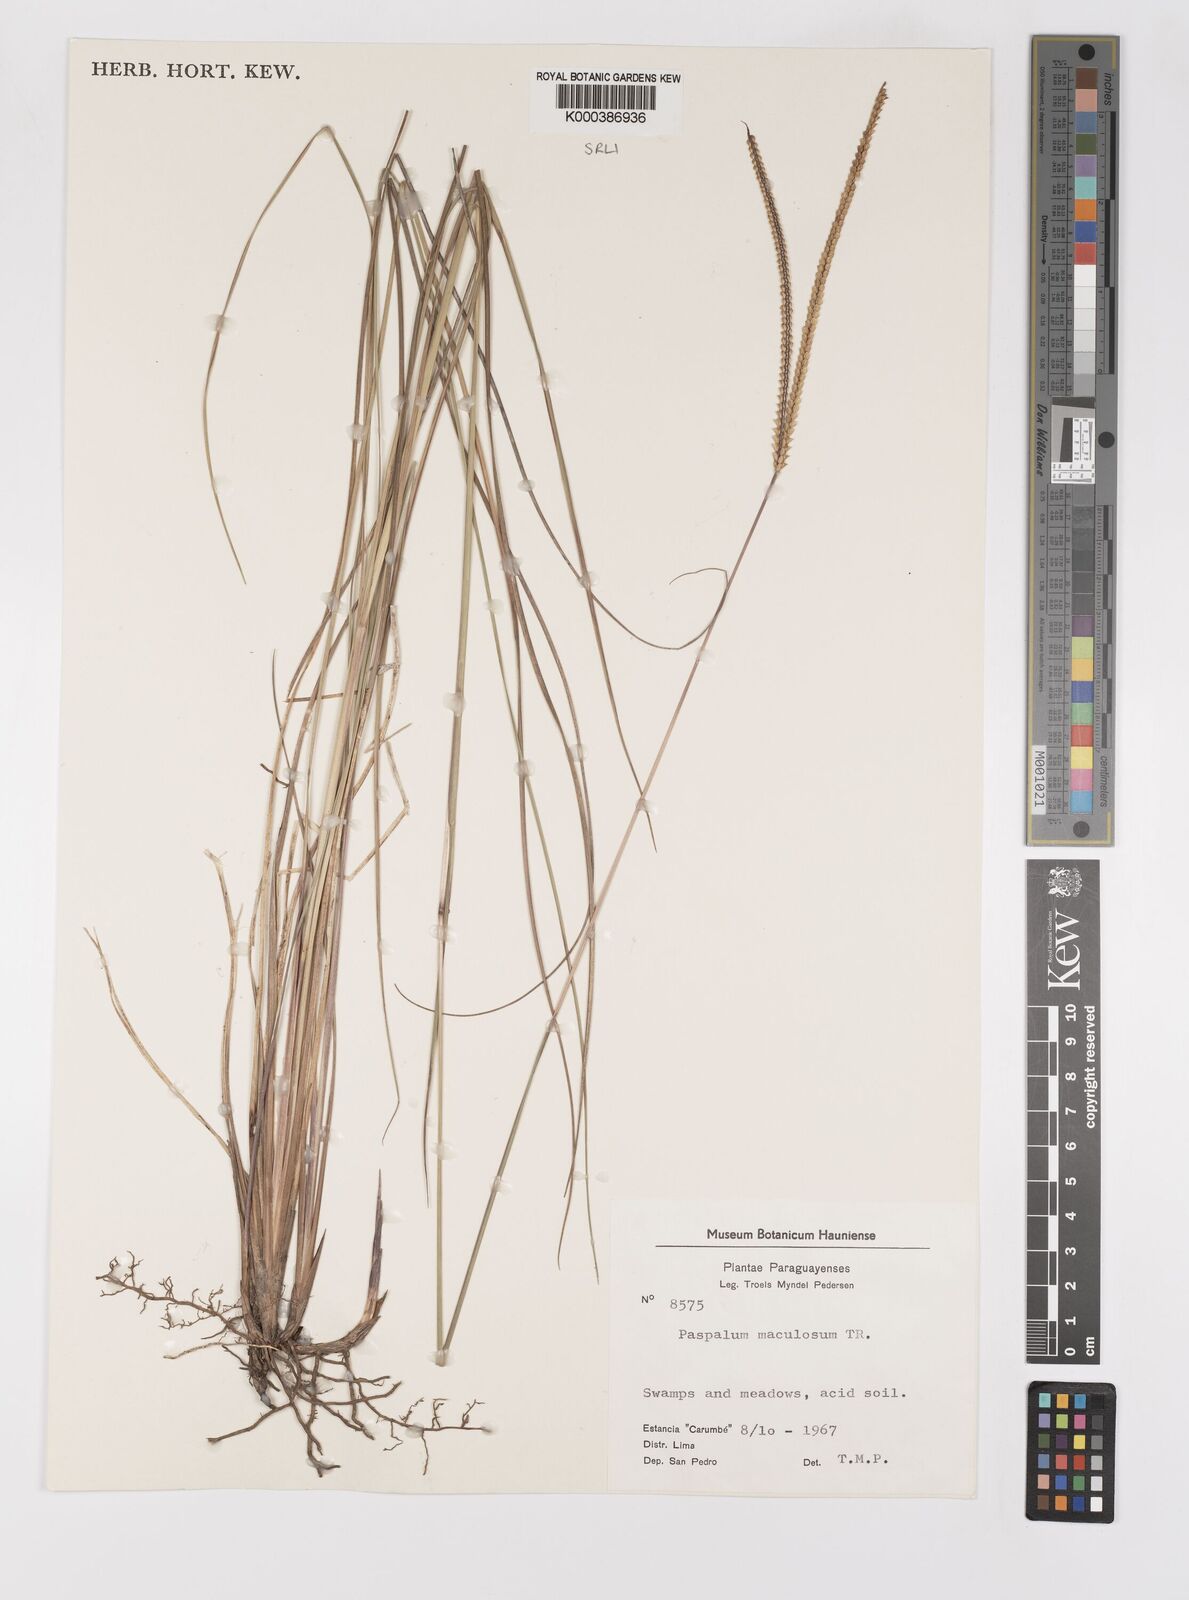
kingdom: Plantae
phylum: Tracheophyta
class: Liliopsida
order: Poales
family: Poaceae
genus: Paspalum
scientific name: Paspalum maculosum
